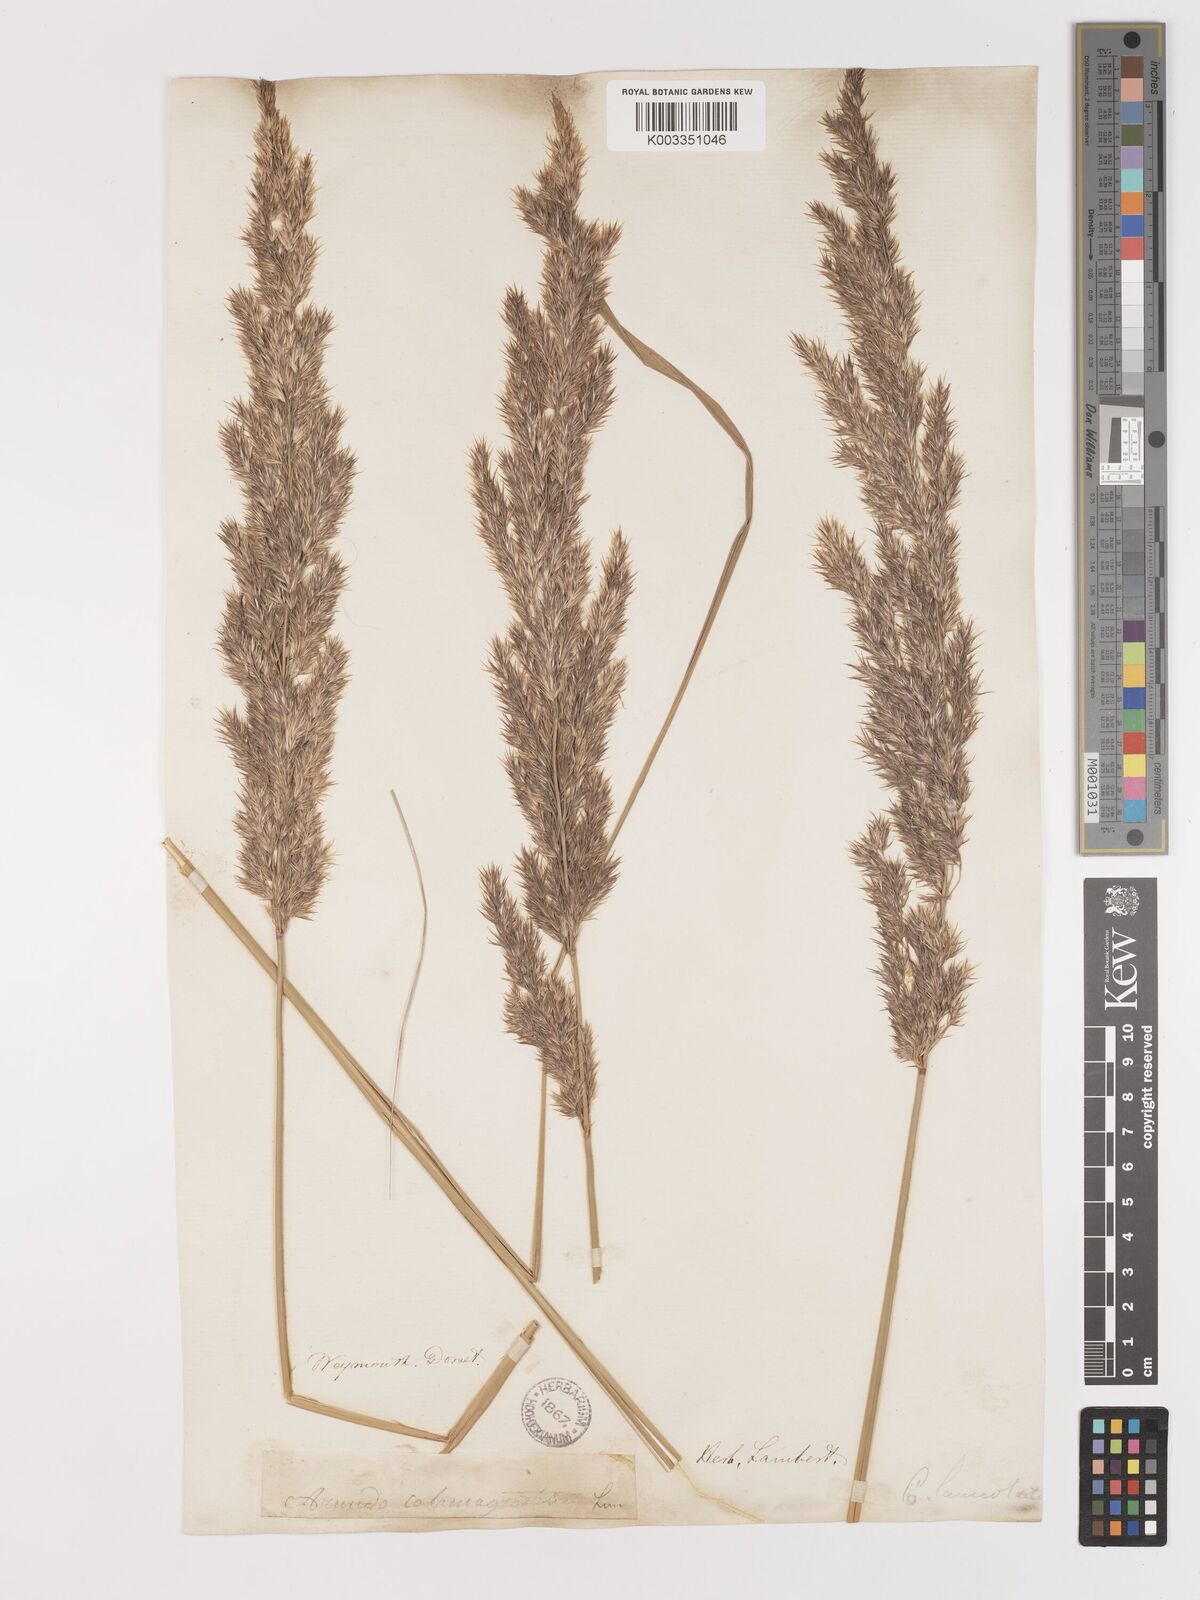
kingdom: Plantae
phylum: Tracheophyta
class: Liliopsida
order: Poales
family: Poaceae
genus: Calamagrostis
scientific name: Calamagrostis epigejos
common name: Wood small-reed
